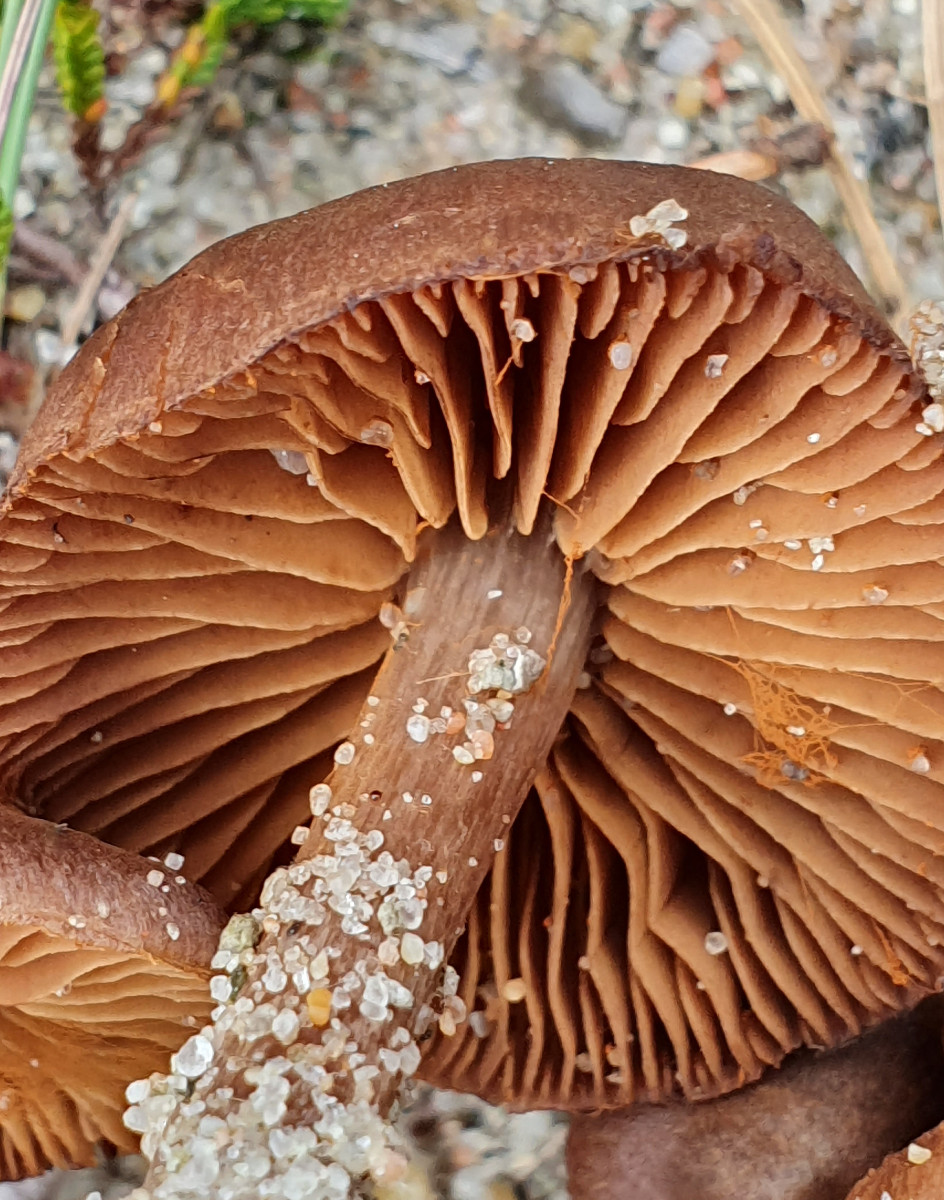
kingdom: Fungi
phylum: Basidiomycota
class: Agaricomycetes
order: Agaricales
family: Cortinariaceae
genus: Cortinarius
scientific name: Cortinarius
